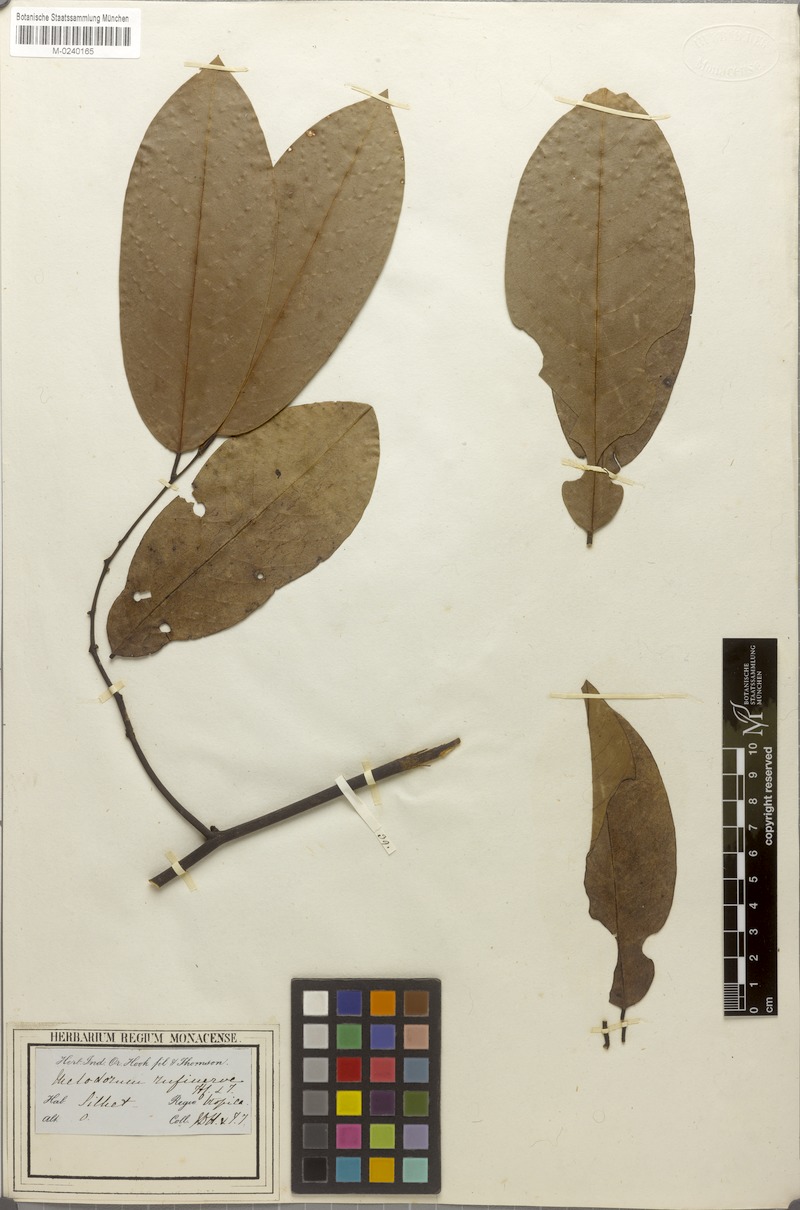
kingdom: Plantae
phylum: Tracheophyta
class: Magnoliopsida
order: Magnoliales
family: Annonaceae
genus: Fissistigma
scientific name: Fissistigma rufinerve
